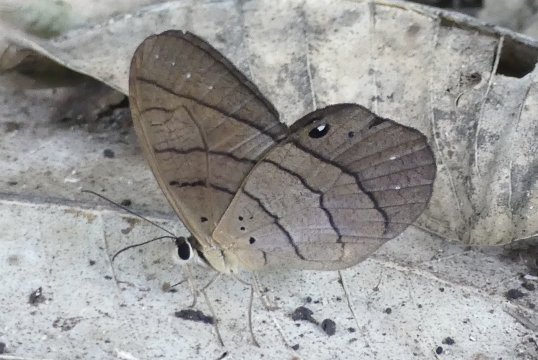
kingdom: Animalia
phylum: Arthropoda
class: Insecta
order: Lepidoptera
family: Nymphalidae
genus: Pierella
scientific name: Pierella luna
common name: Moon Satyr
